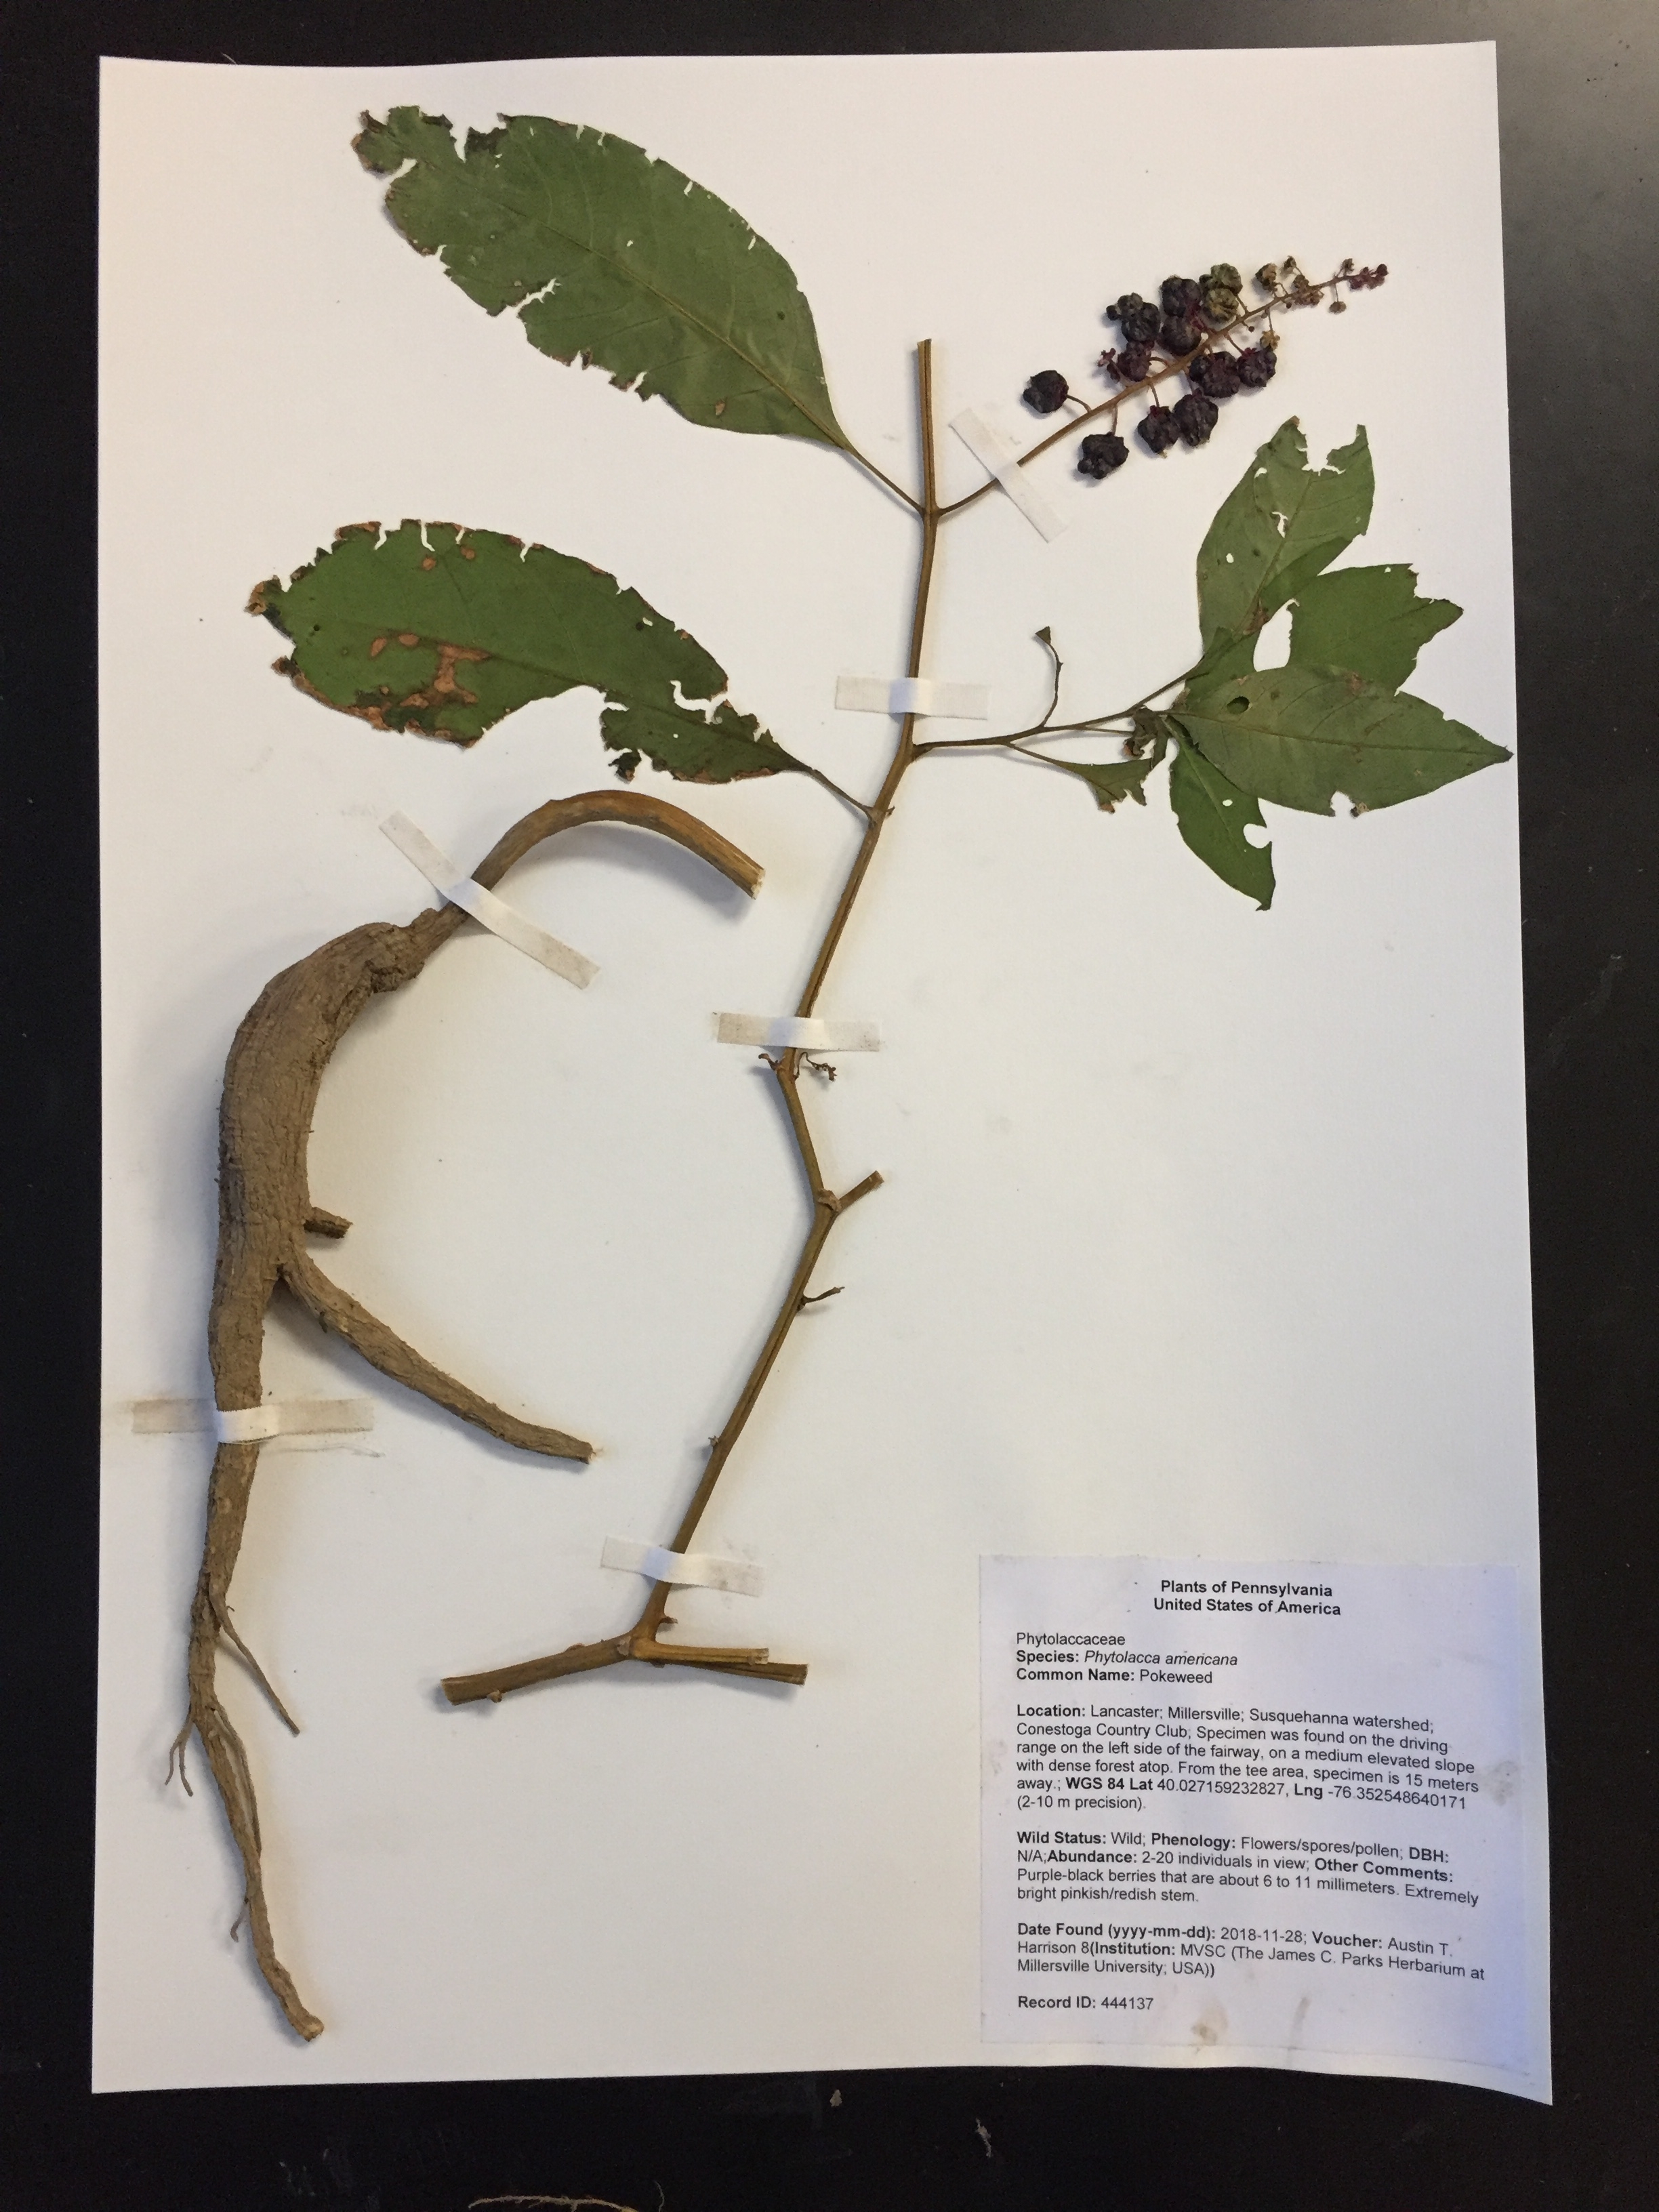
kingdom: Plantae
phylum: Tracheophyta
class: Magnoliopsida
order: Caryophyllales
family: Phytolaccaceae
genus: Phytolacca
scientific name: Phytolacca americana
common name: Pokeweed
